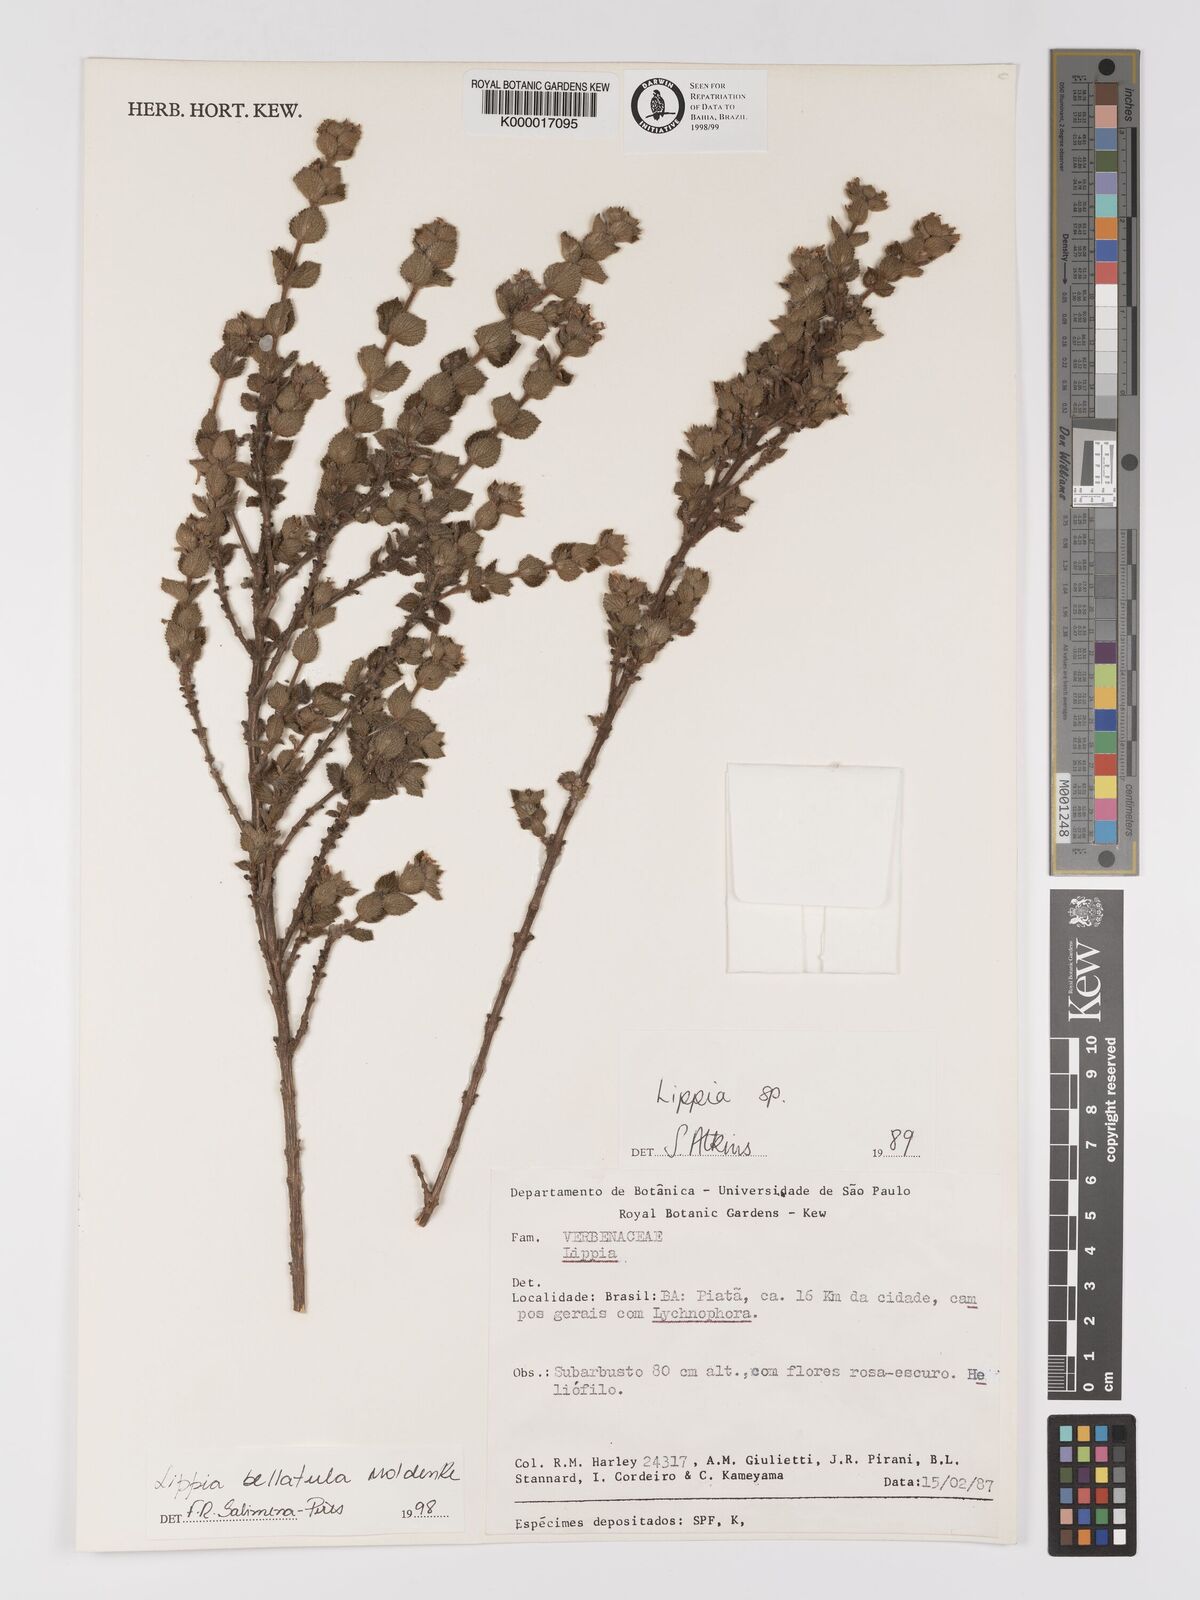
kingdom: Plantae
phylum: Tracheophyta
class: Magnoliopsida
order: Lamiales
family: Verbenaceae
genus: Lippia
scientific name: Lippia bellatula
